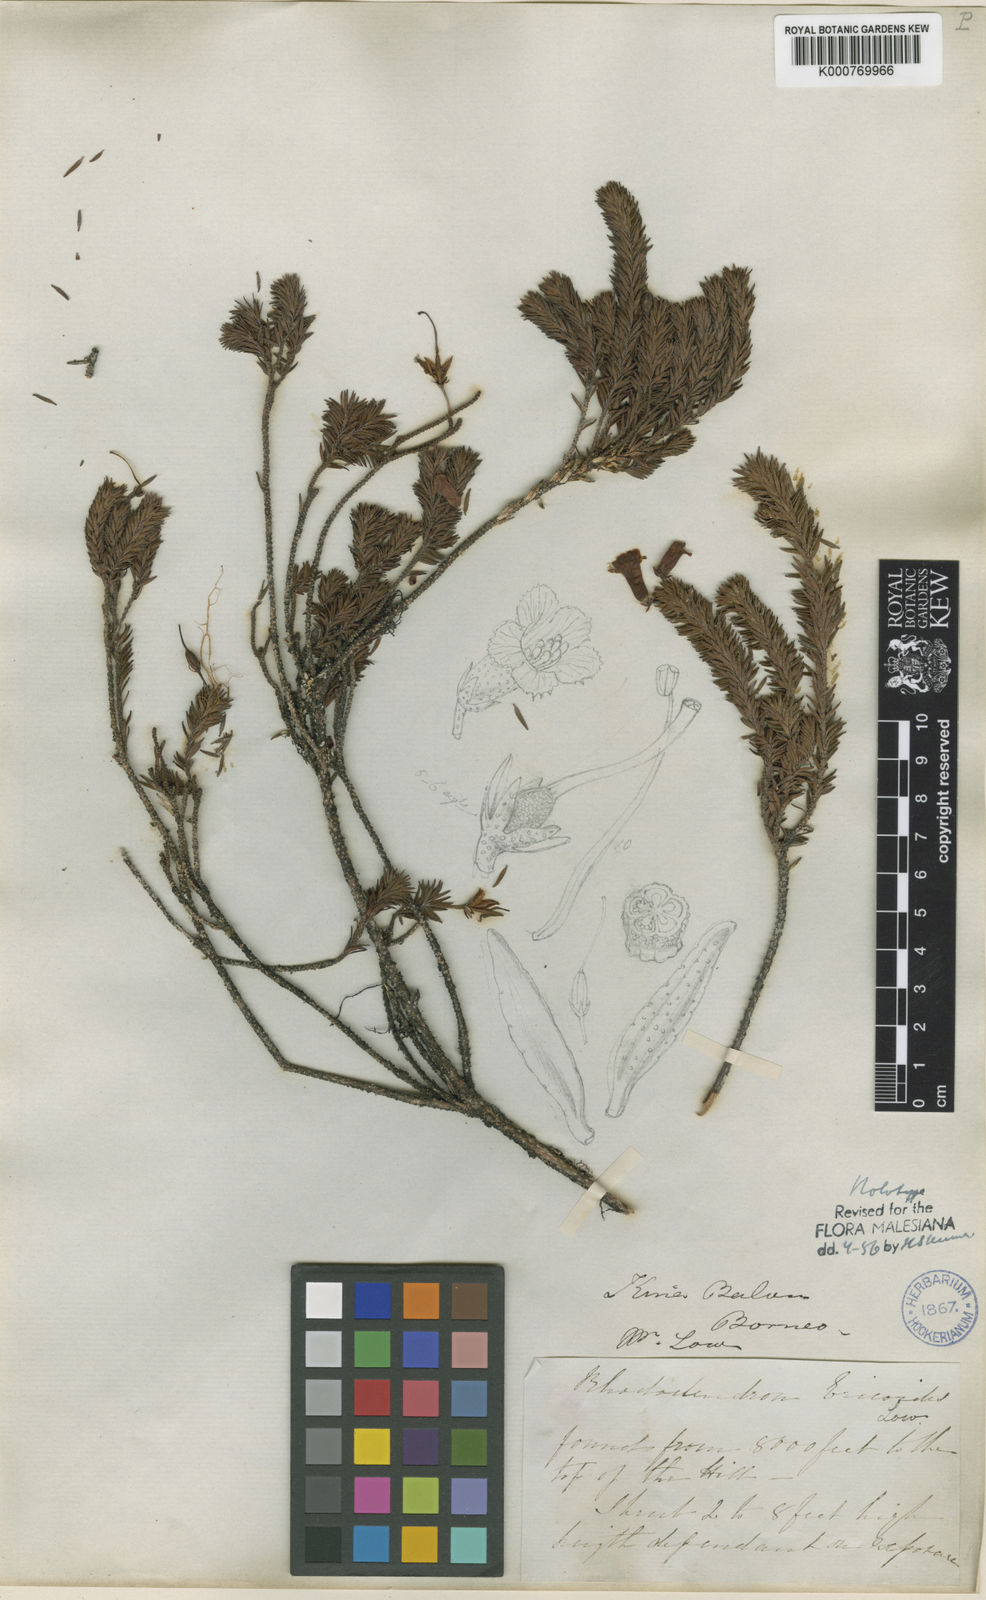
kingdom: Plantae
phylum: Tracheophyta
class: Magnoliopsida
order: Ericales
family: Ericaceae
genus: Rhododendron
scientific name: Rhododendron ericoides
